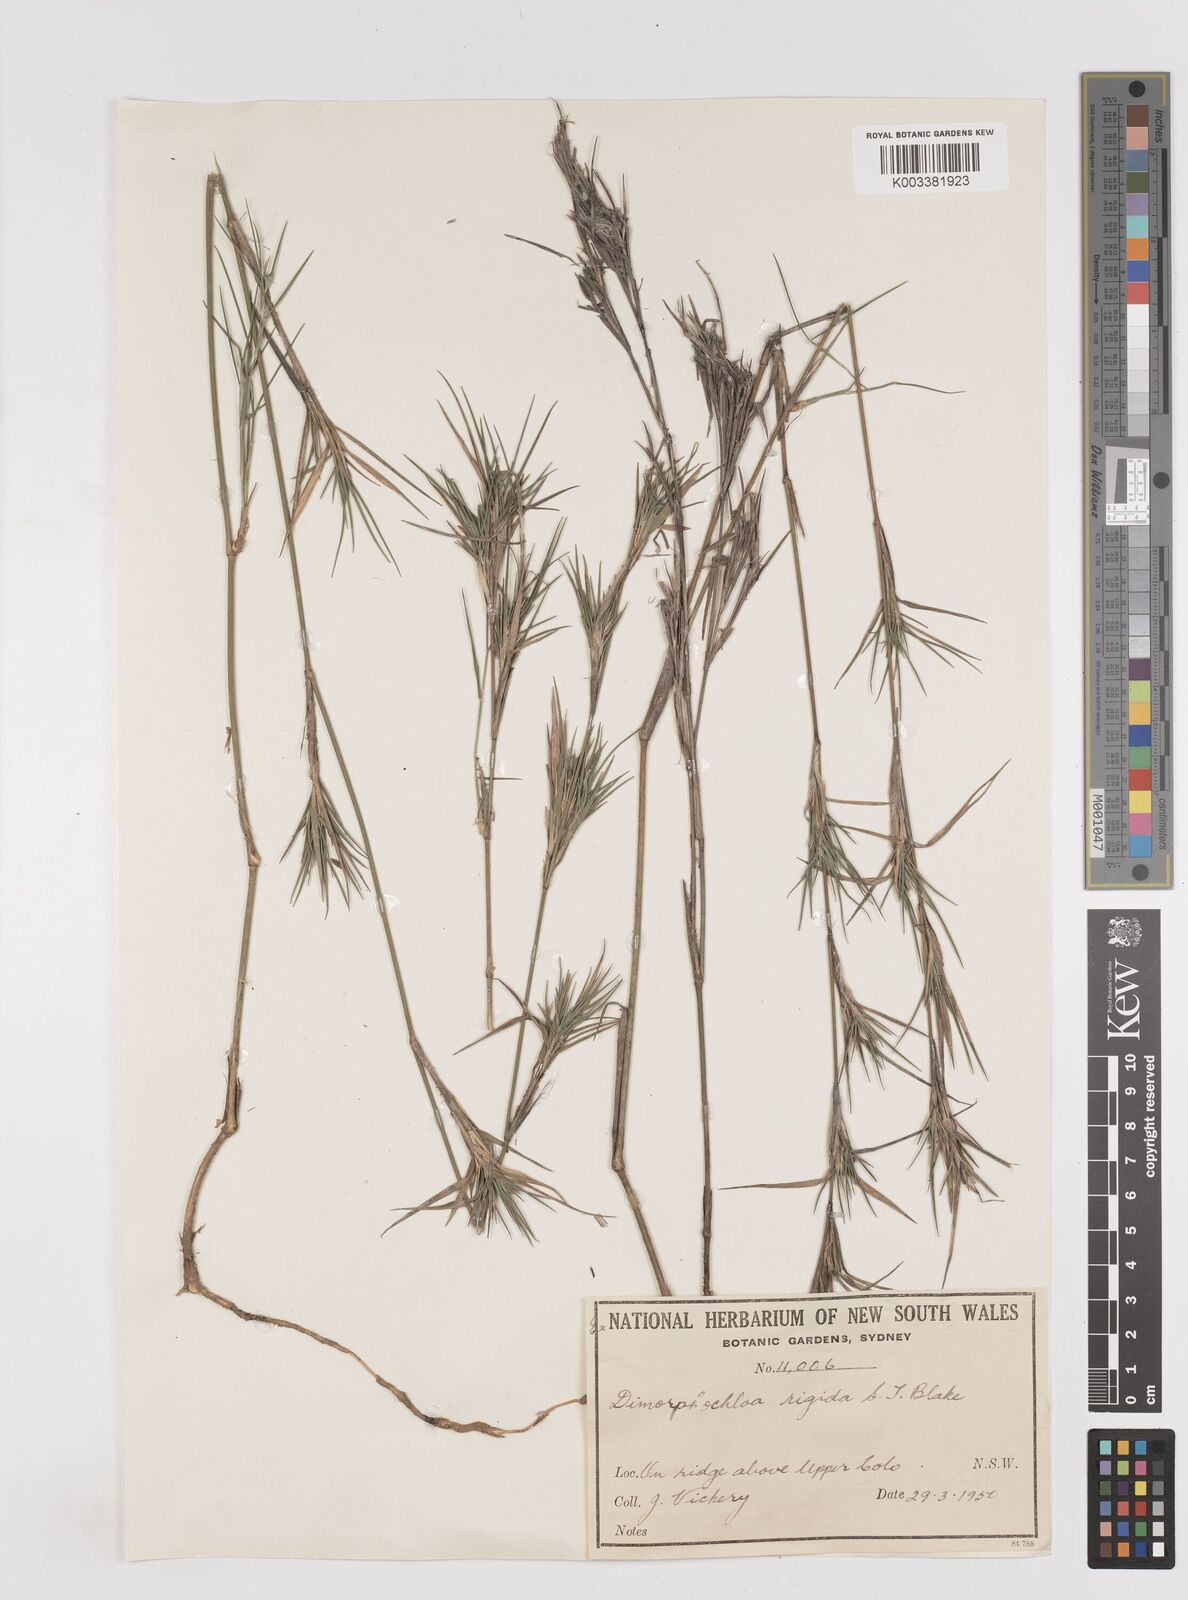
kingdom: Plantae
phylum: Tracheophyta
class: Liliopsida
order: Poales
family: Poaceae
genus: Dimorphochloa
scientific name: Dimorphochloa rigida
